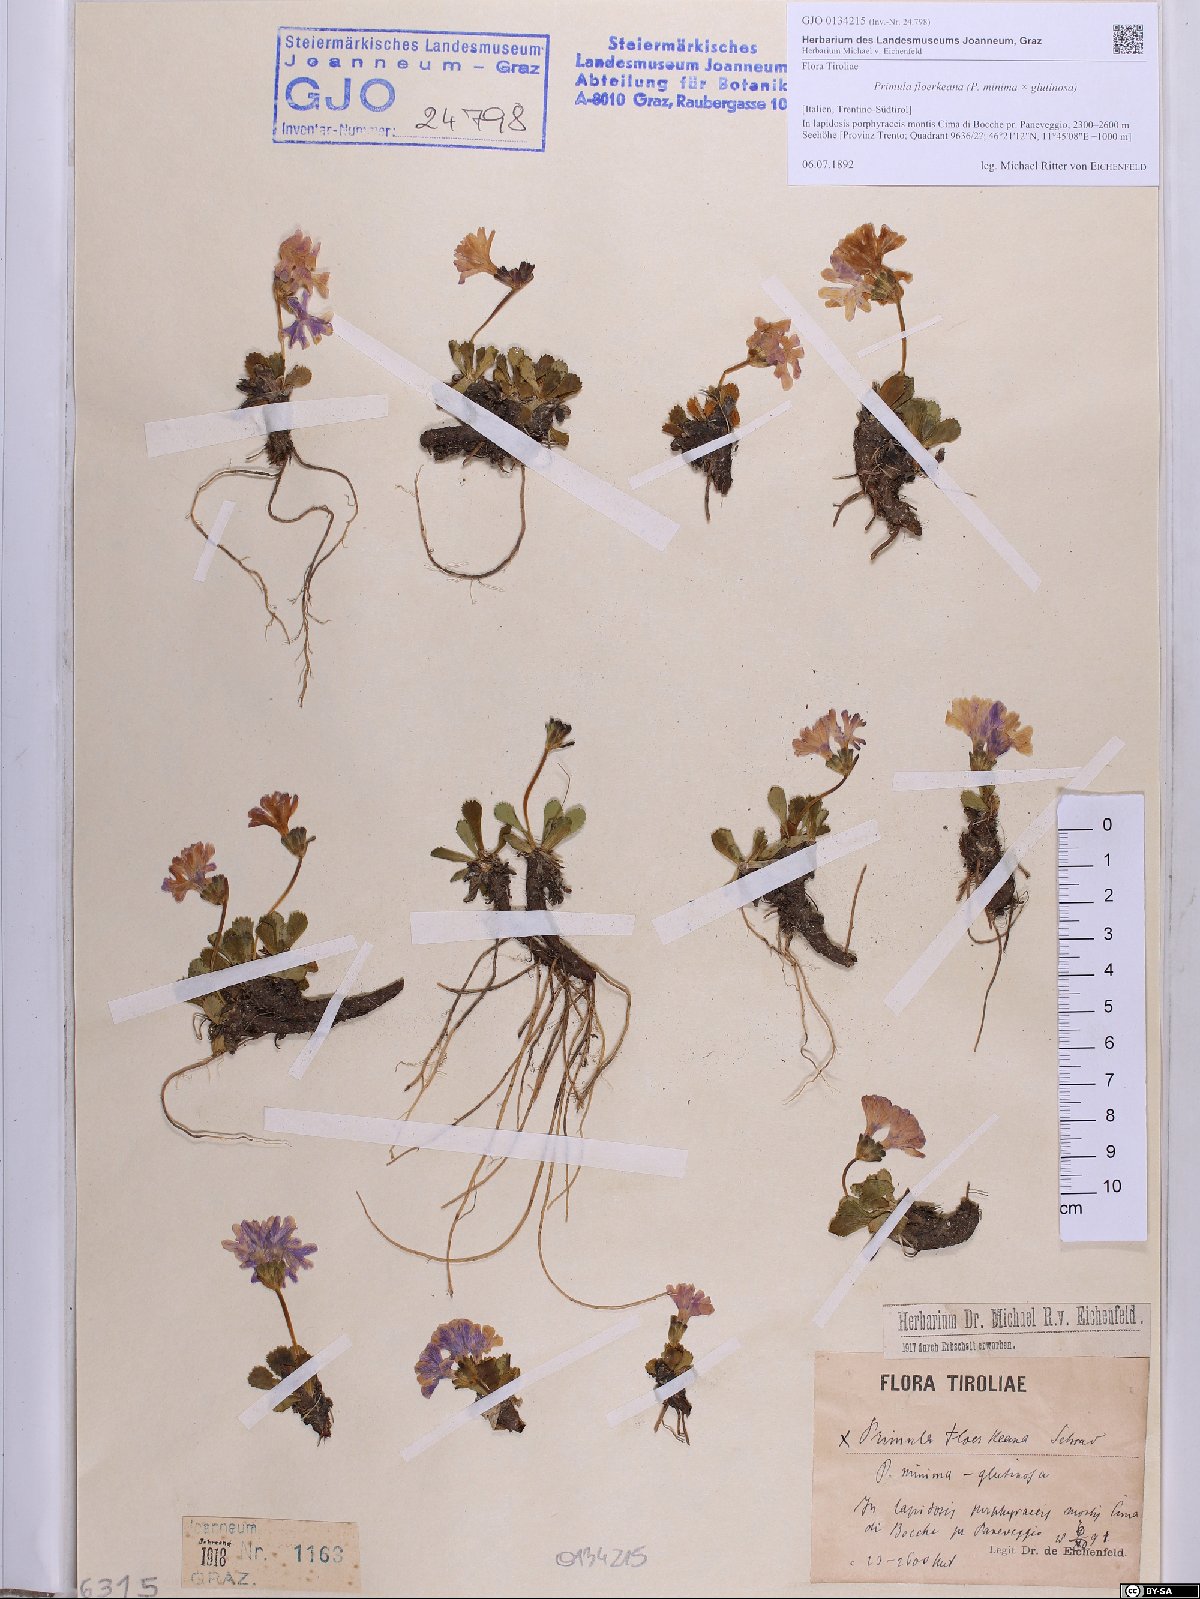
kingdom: Plantae
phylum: Tracheophyta
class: Magnoliopsida
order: Ericales
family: Primulaceae
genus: Primula
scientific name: Primula floerkeana
